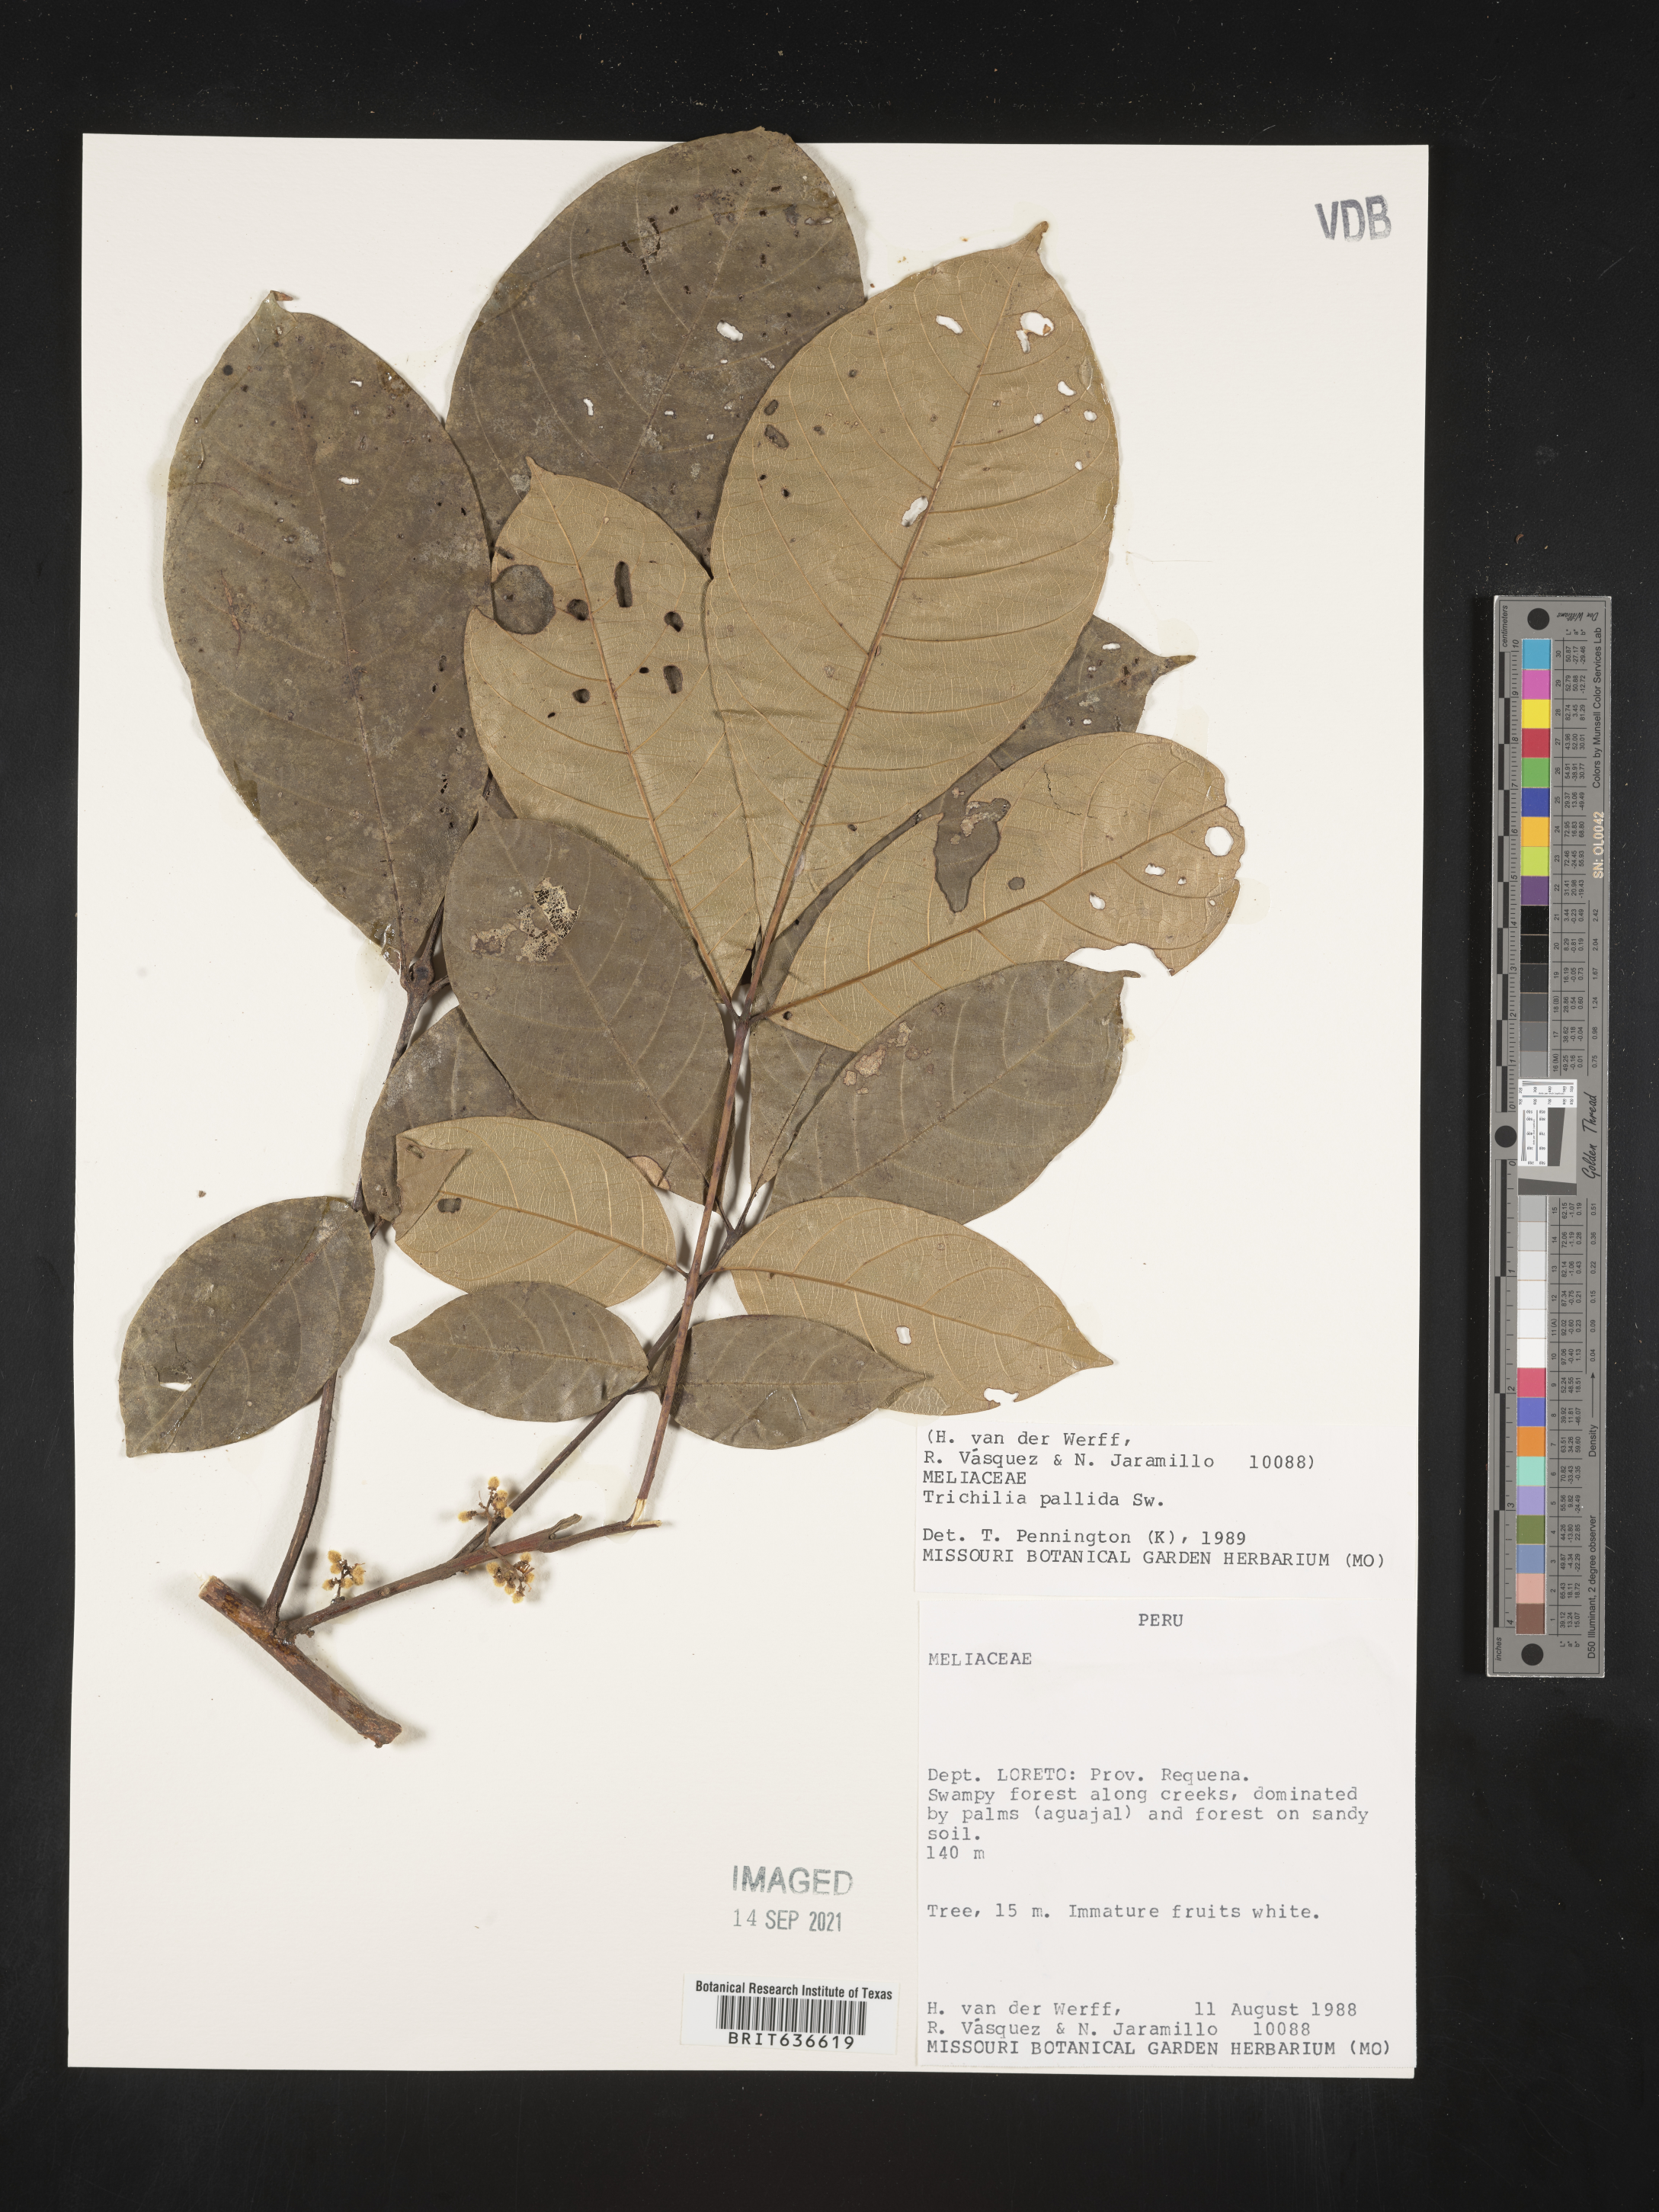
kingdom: Plantae
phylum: Tracheophyta
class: Magnoliopsida
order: Sapindales
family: Meliaceae
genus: Trichilia
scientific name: Trichilia
